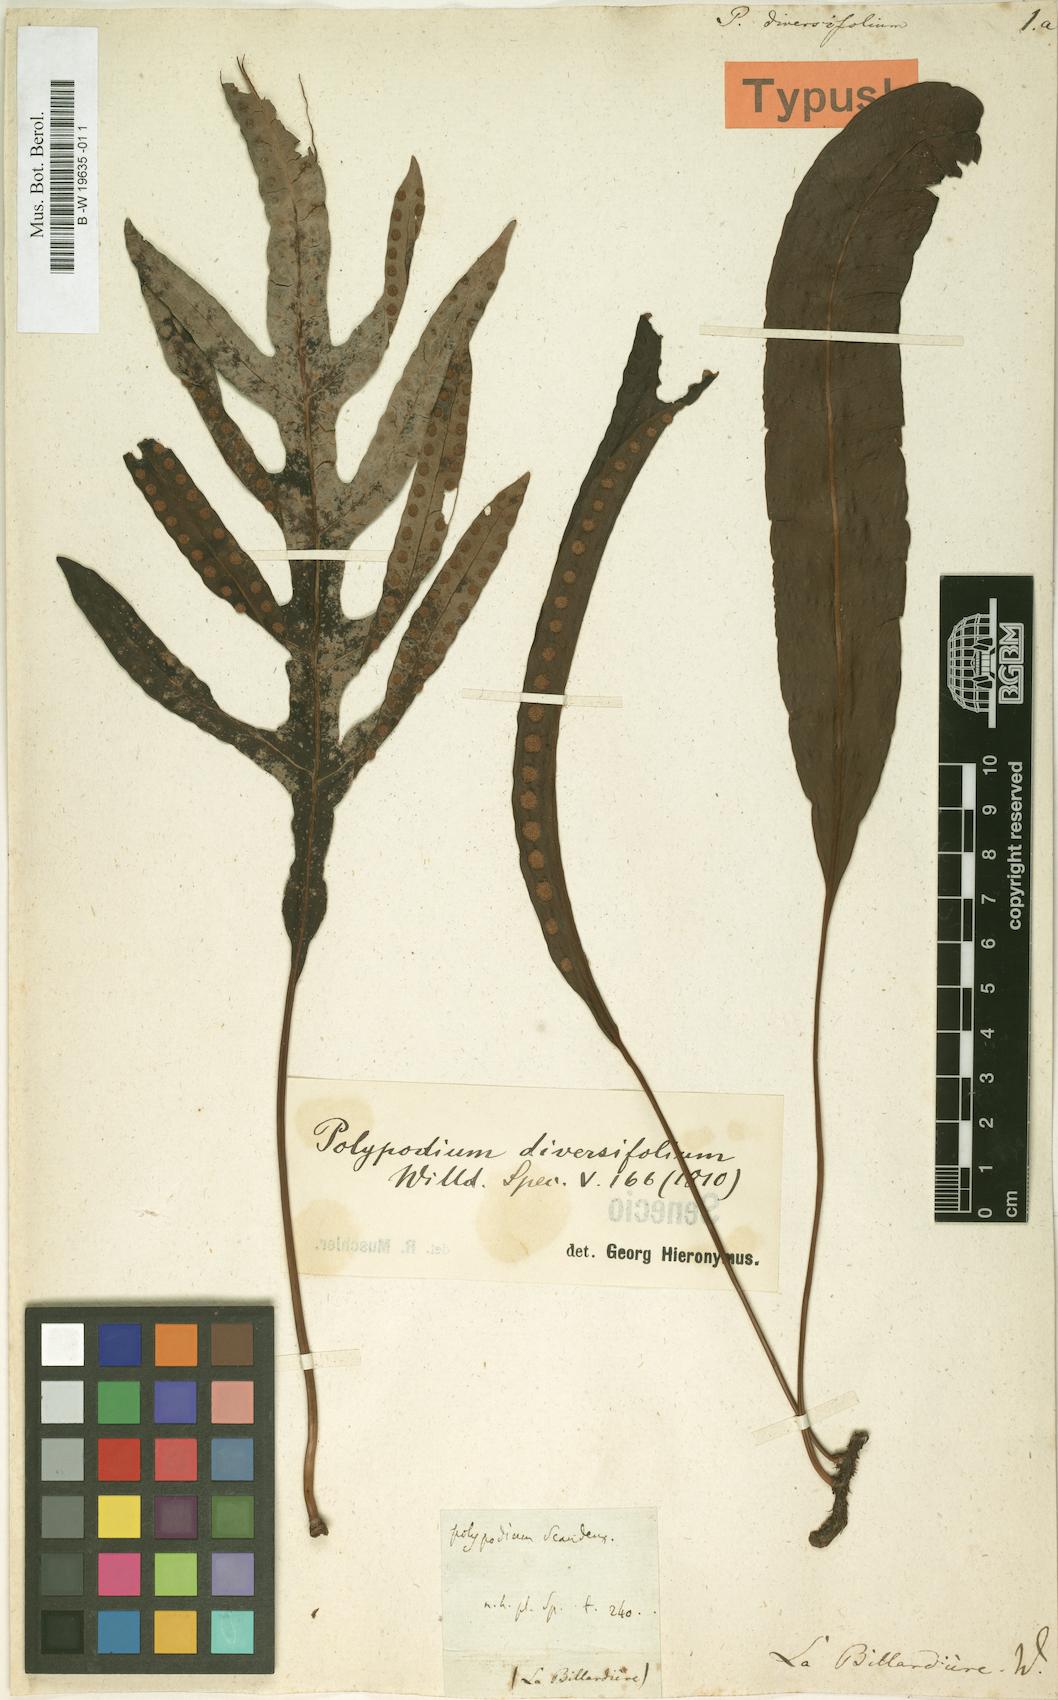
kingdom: Plantae
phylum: Tracheophyta
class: Polypodiopsida
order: Polypodiales
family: Polypodiaceae
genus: Lecanopteris
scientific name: Lecanopteris pustulata
